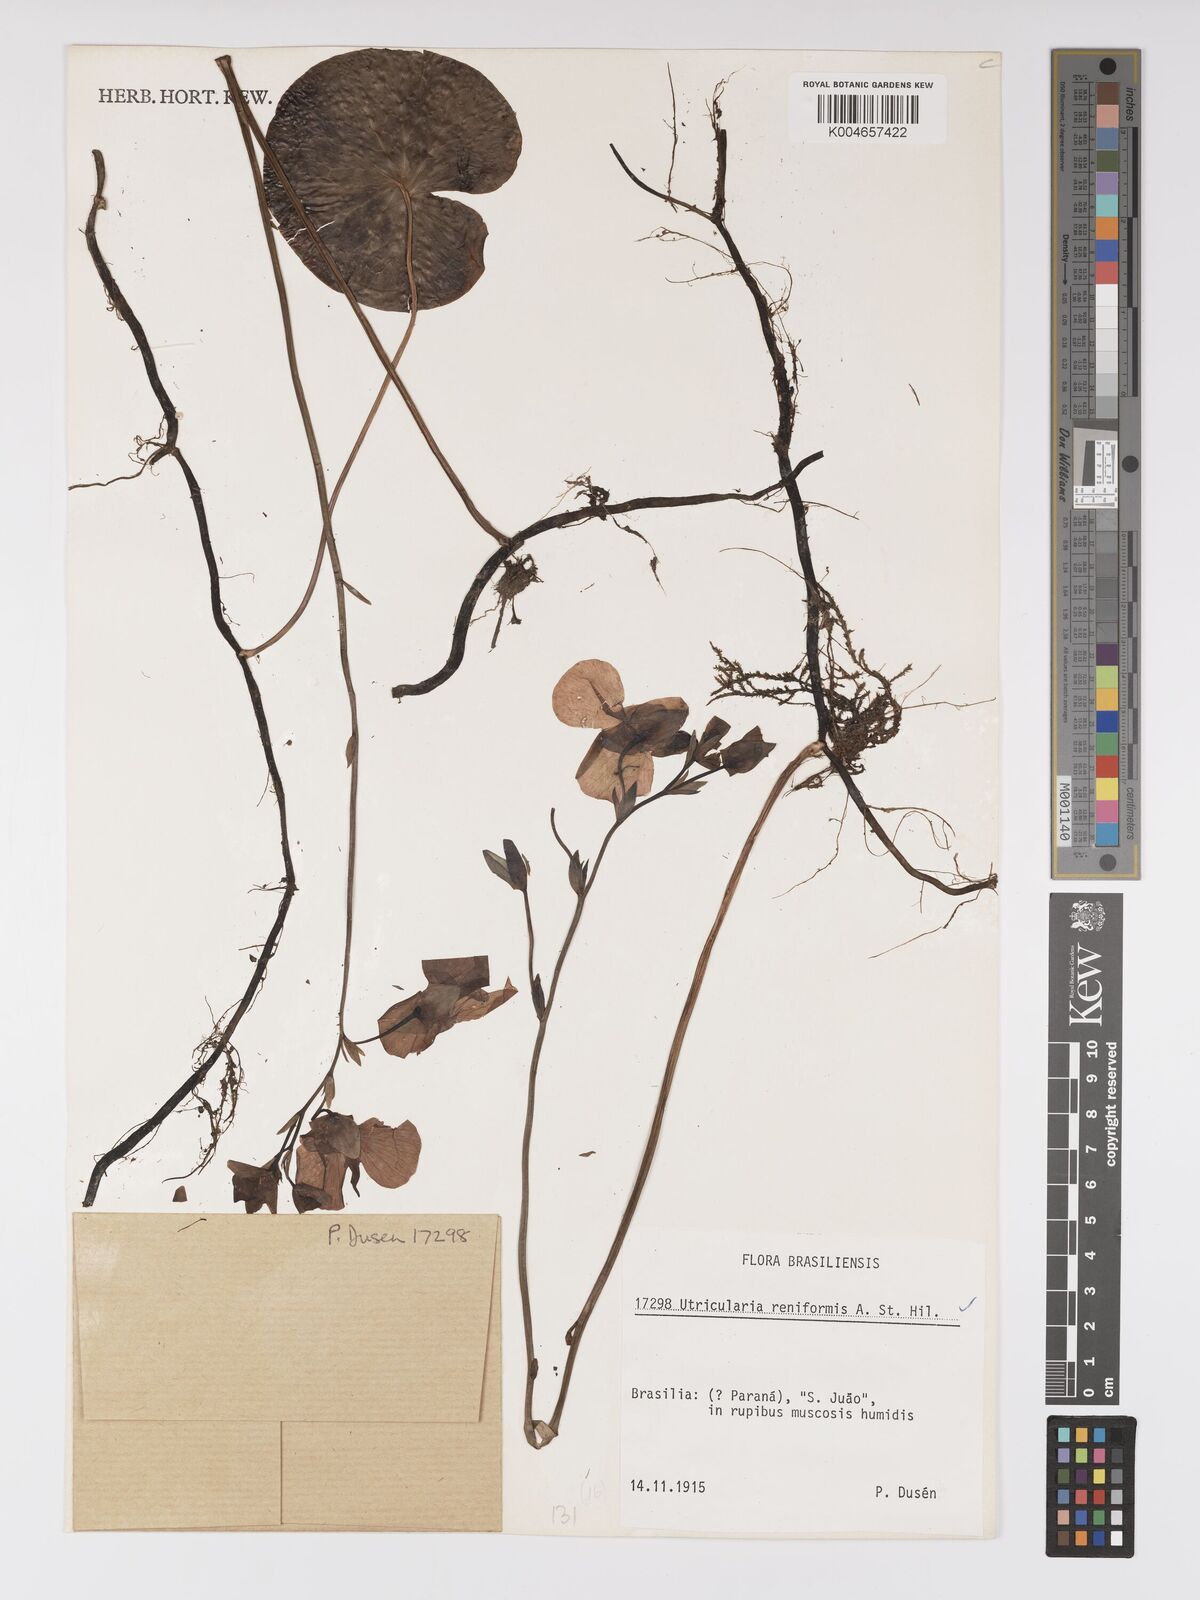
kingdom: Plantae
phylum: Tracheophyta
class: Magnoliopsida
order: Lamiales
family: Lentibulariaceae
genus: Utricularia
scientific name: Utricularia reniformis
